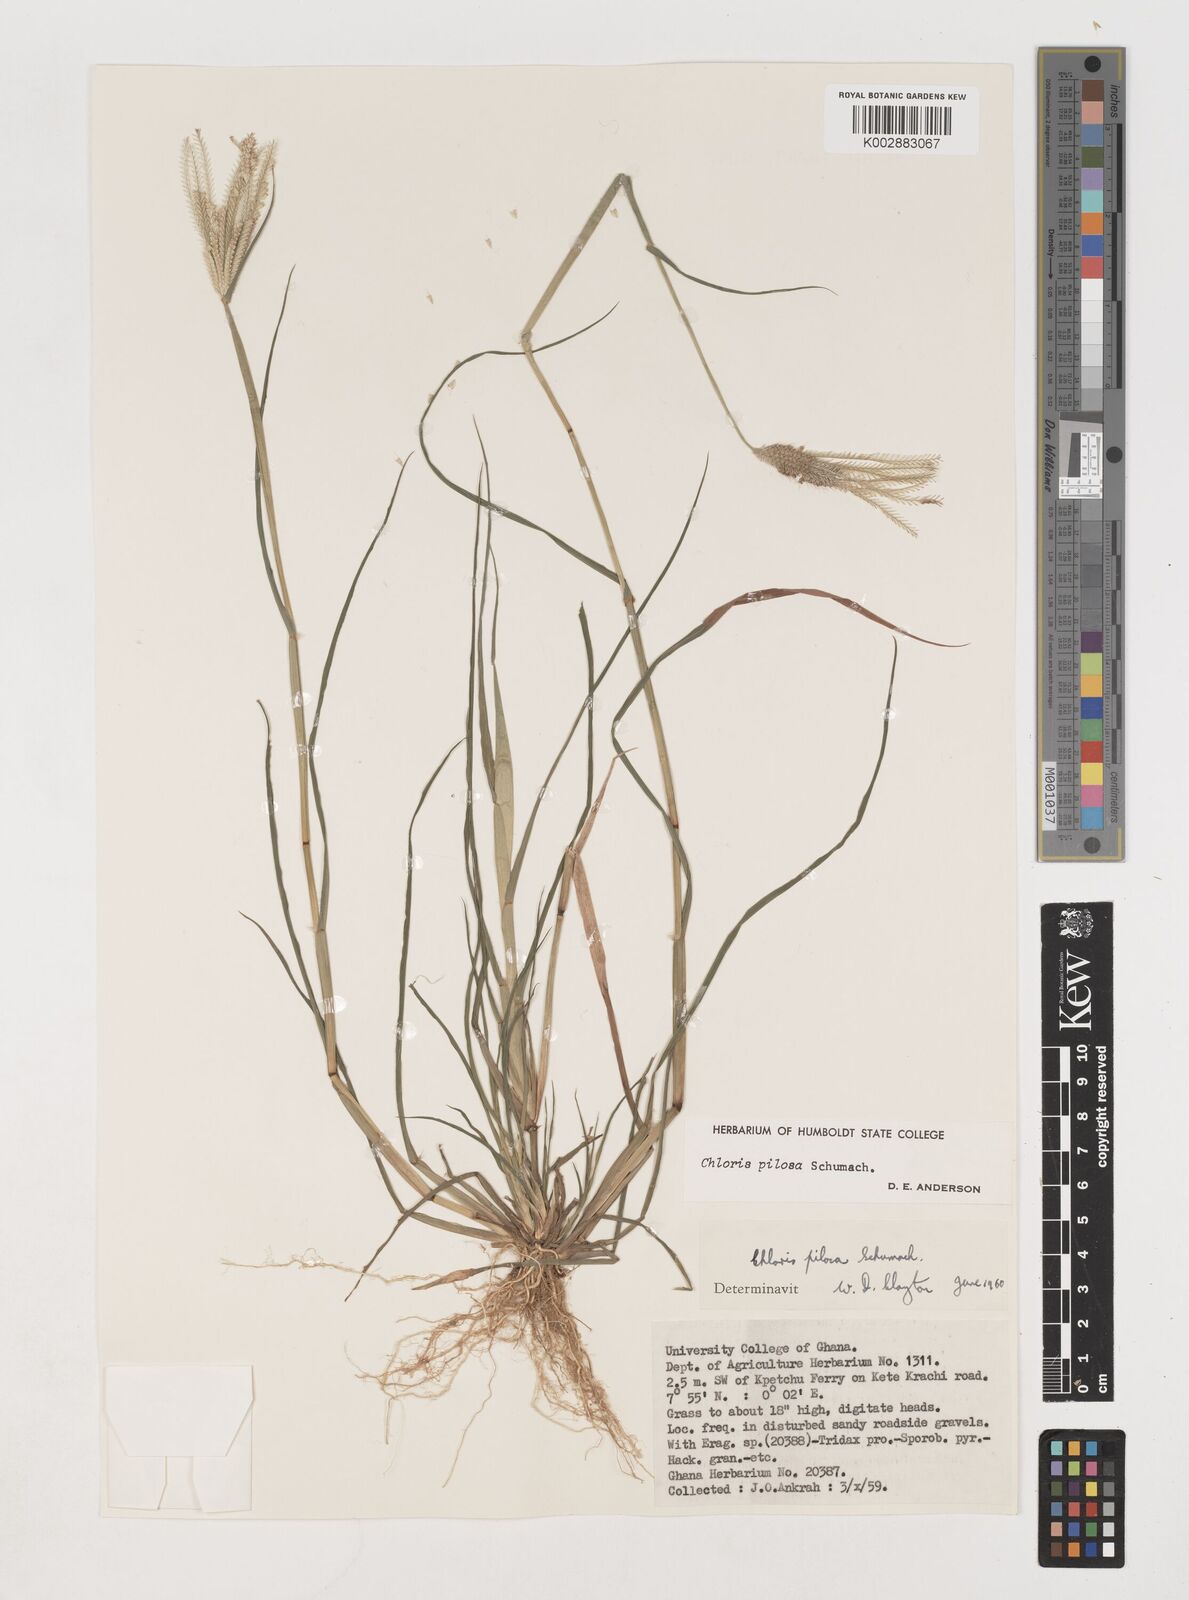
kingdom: Plantae
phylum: Tracheophyta
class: Liliopsida
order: Poales
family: Poaceae
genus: Chloris
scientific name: Chloris pilosa
